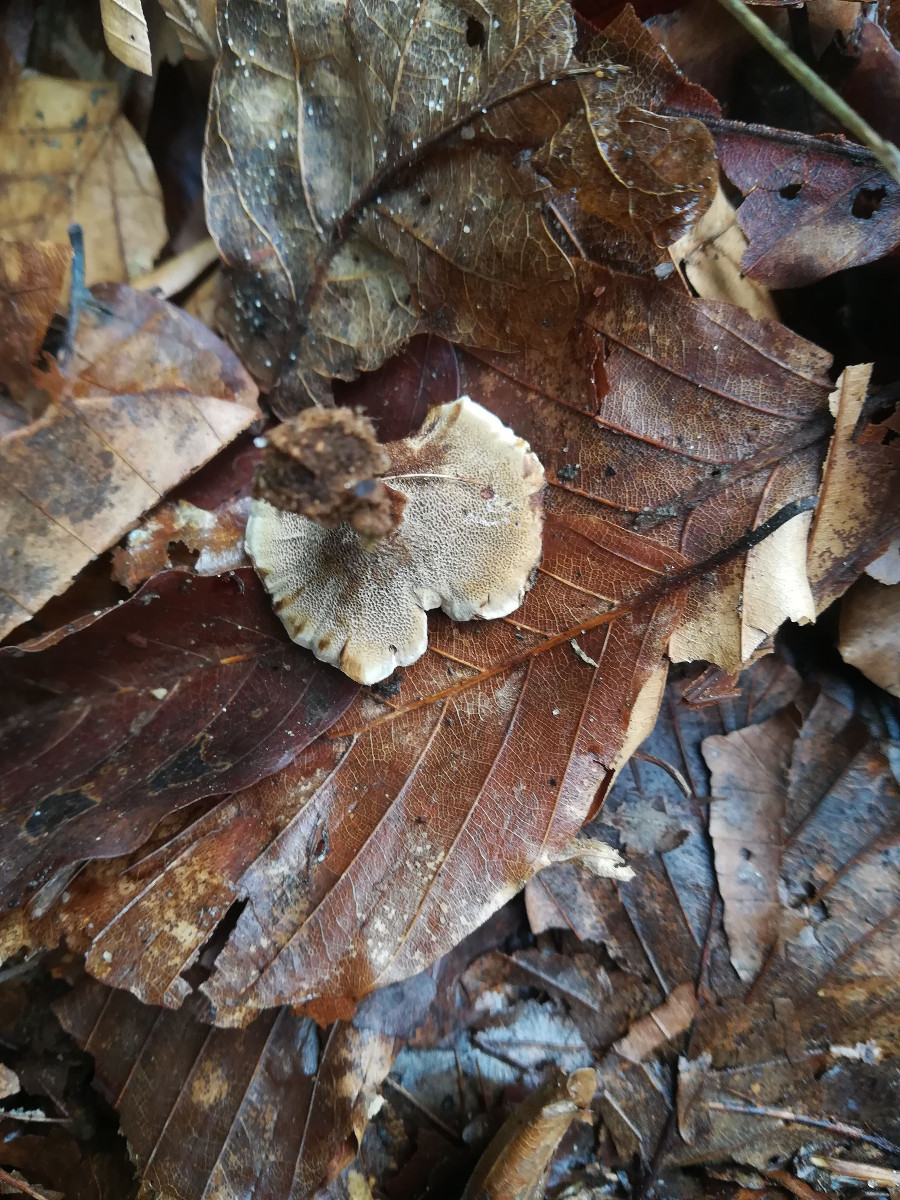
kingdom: Fungi
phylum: Basidiomycota
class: Agaricomycetes
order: Hymenochaetales
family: Hymenochaetaceae
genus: Coltricia
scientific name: Coltricia perennis
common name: almindelig sandporesvamp
